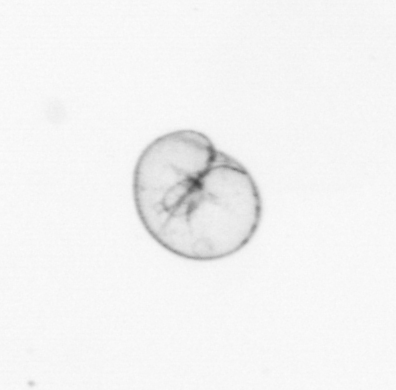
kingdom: Chromista
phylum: Myzozoa
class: Dinophyceae
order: Noctilucales
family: Noctilucaceae
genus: Noctiluca
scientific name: Noctiluca scintillans
